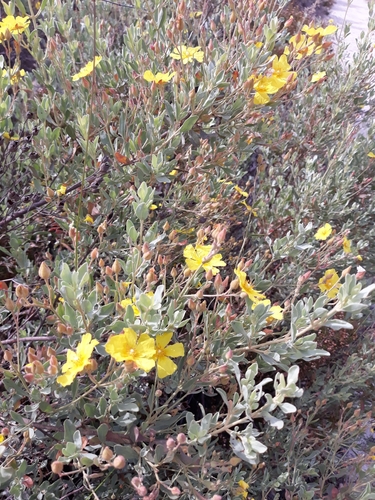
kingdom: Plantae
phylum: Tracheophyta
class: Magnoliopsida
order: Malvales
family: Cistaceae
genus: Halimium
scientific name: Halimium halimifolium
